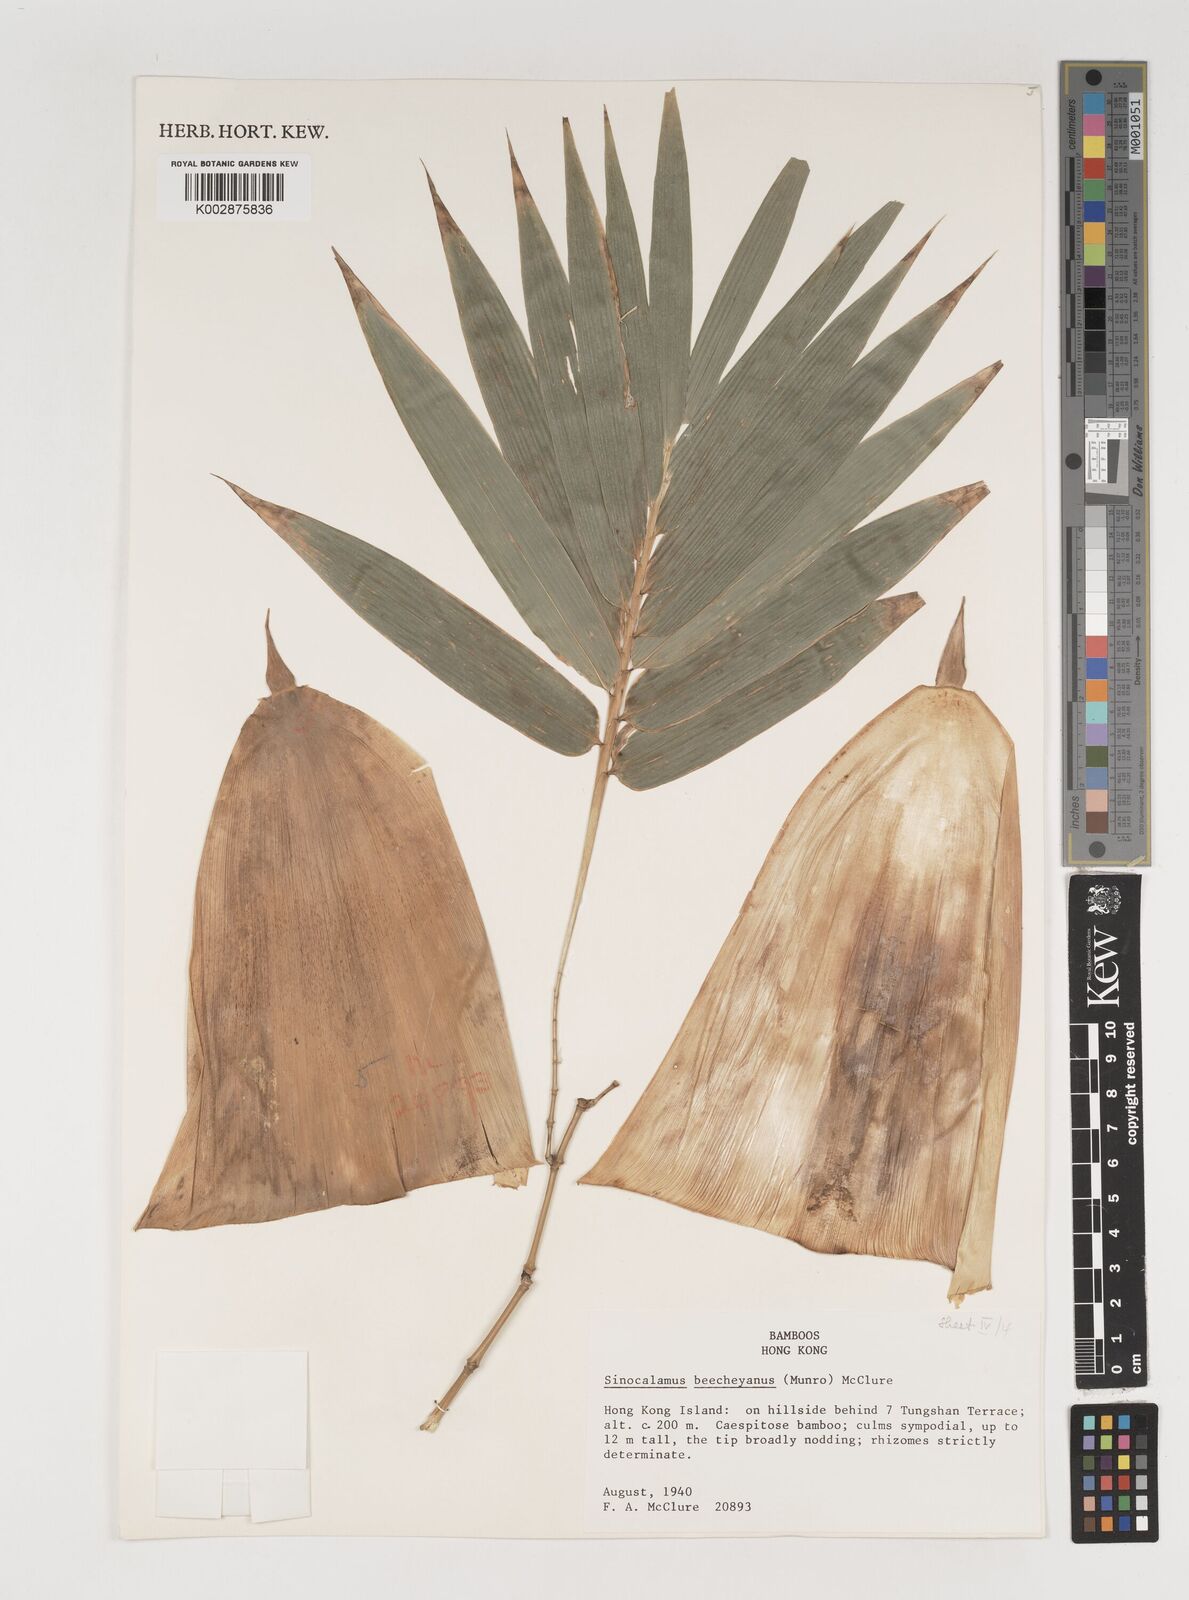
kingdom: Plantae
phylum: Tracheophyta
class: Liliopsida
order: Poales
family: Poaceae
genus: Bambusa
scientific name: Bambusa beecheyana
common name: Beechey's bamboo
